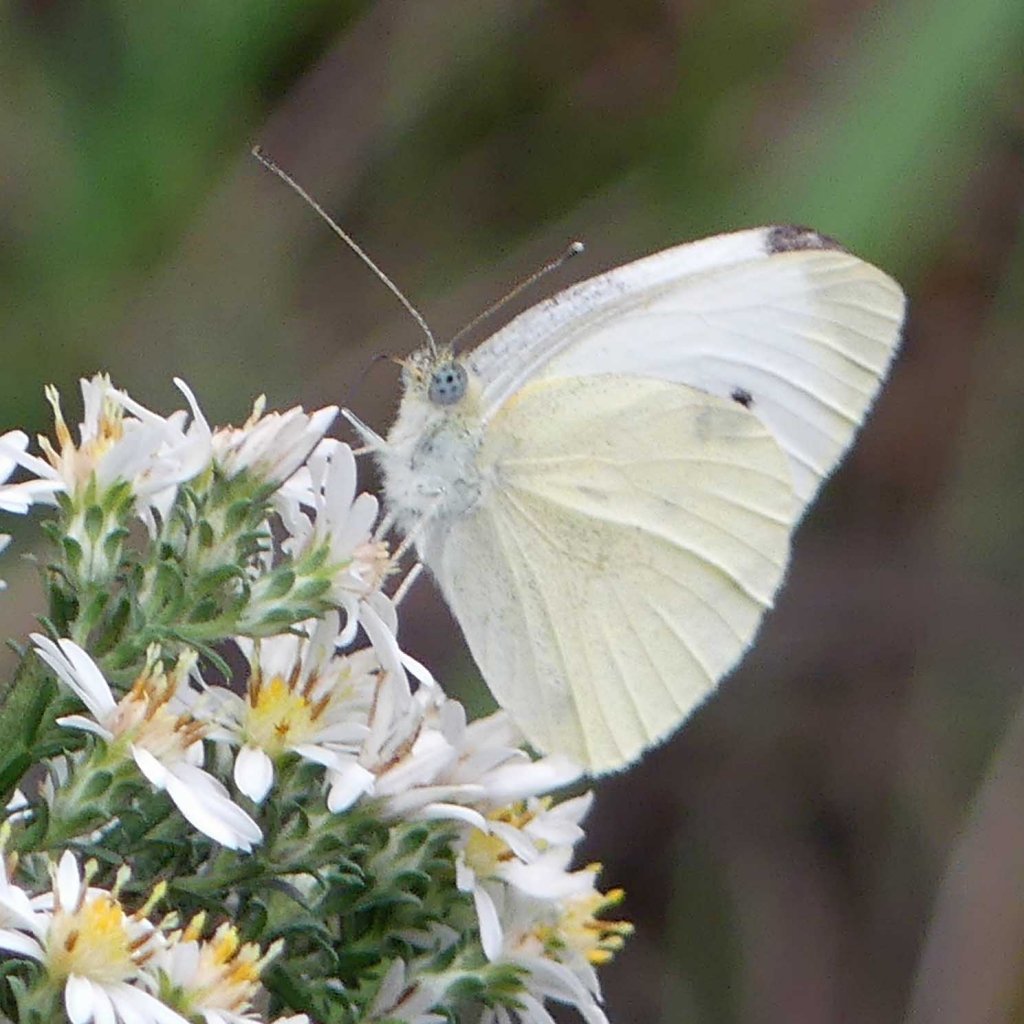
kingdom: Animalia
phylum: Arthropoda
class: Insecta
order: Lepidoptera
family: Pieridae
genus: Pieris
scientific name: Pieris rapae
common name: Cabbage White
